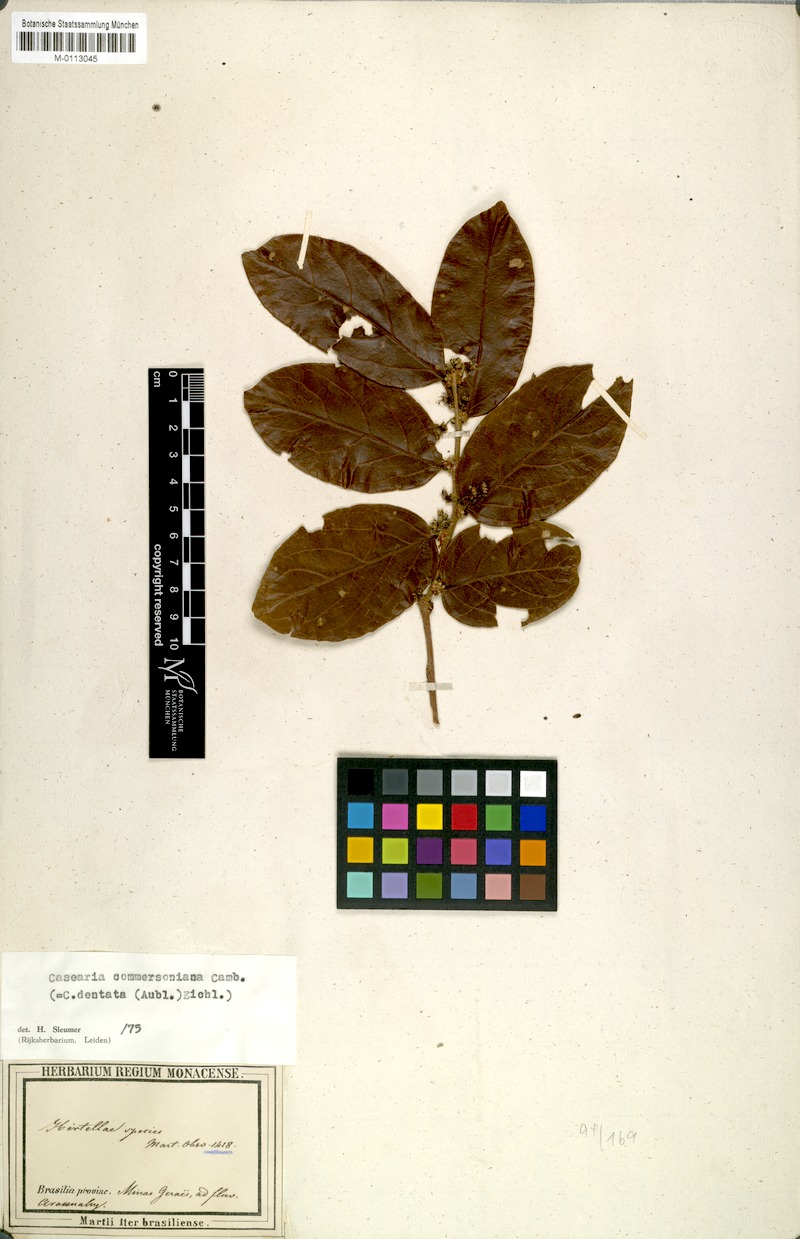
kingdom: Plantae
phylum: Tracheophyta
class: Magnoliopsida
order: Malpighiales
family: Salicaceae
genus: Piparea
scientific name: Piparea dentata
